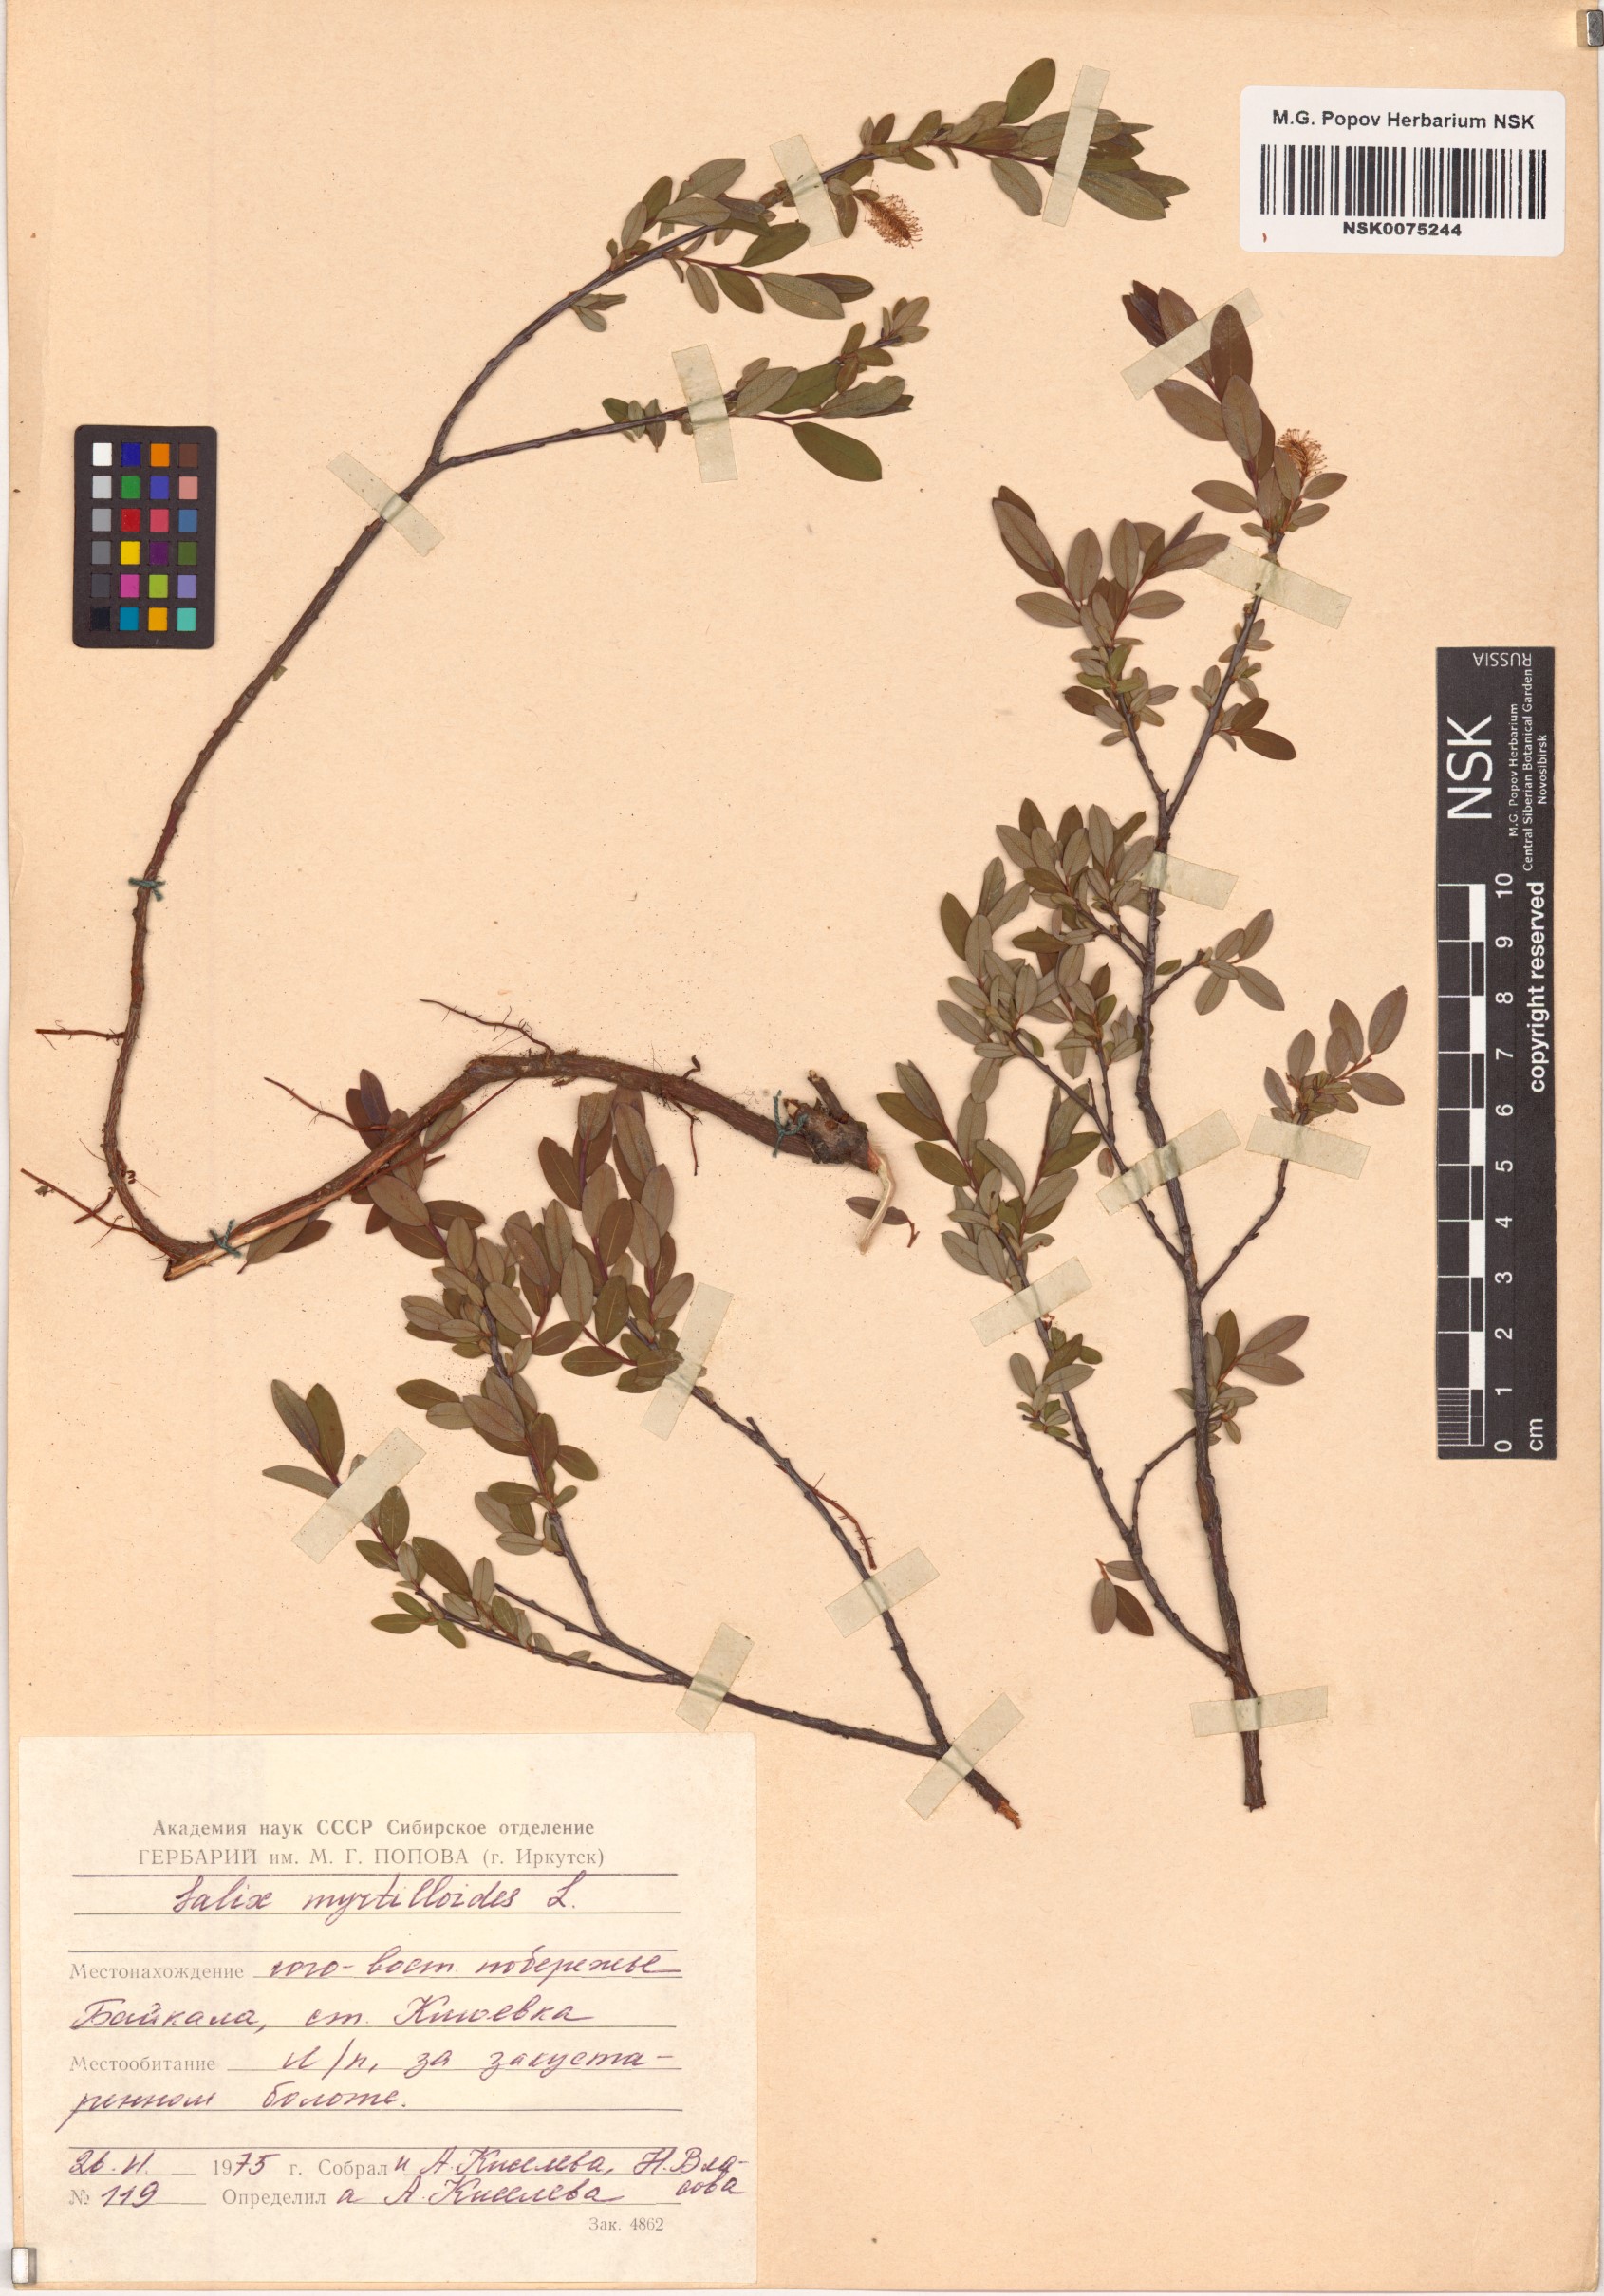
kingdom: Plantae
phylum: Tracheophyta
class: Magnoliopsida
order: Malpighiales
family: Salicaceae
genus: Salix
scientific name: Salix myrtilloides
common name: Myrtle-leaved willow
